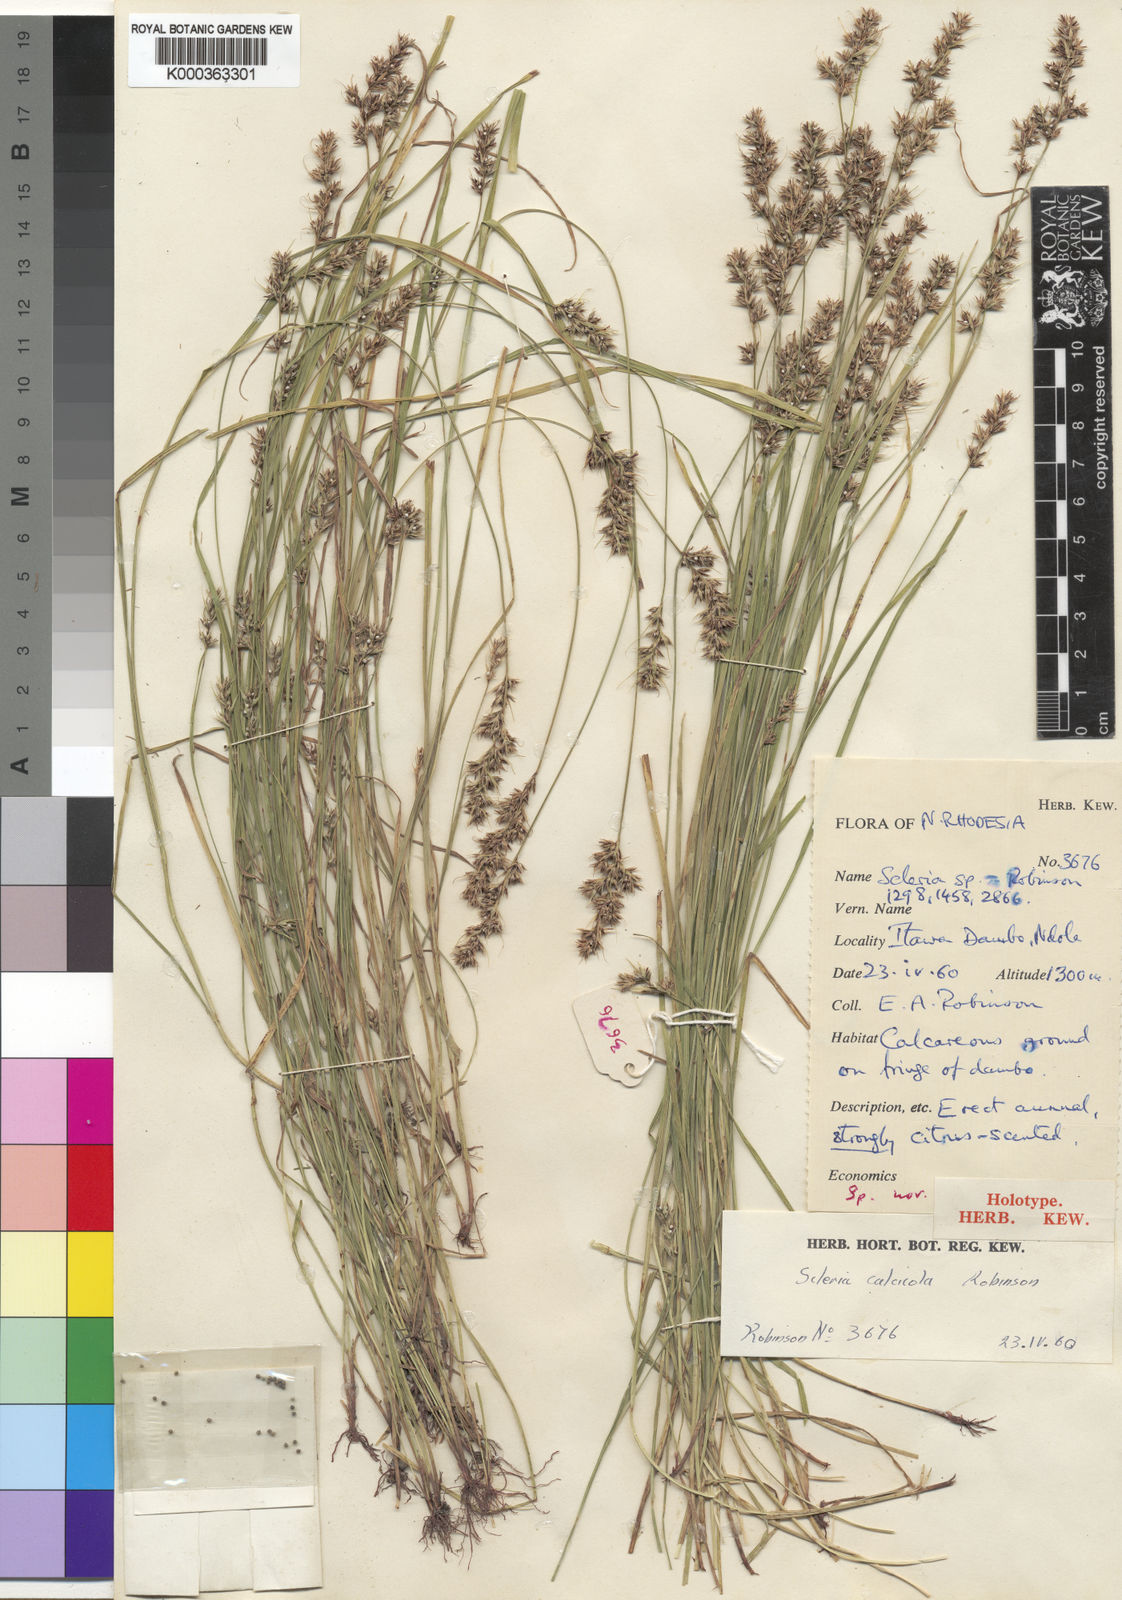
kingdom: Plantae
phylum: Tracheophyta
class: Liliopsida
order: Poales
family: Cyperaceae
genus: Scleria
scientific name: Scleria calcicola
